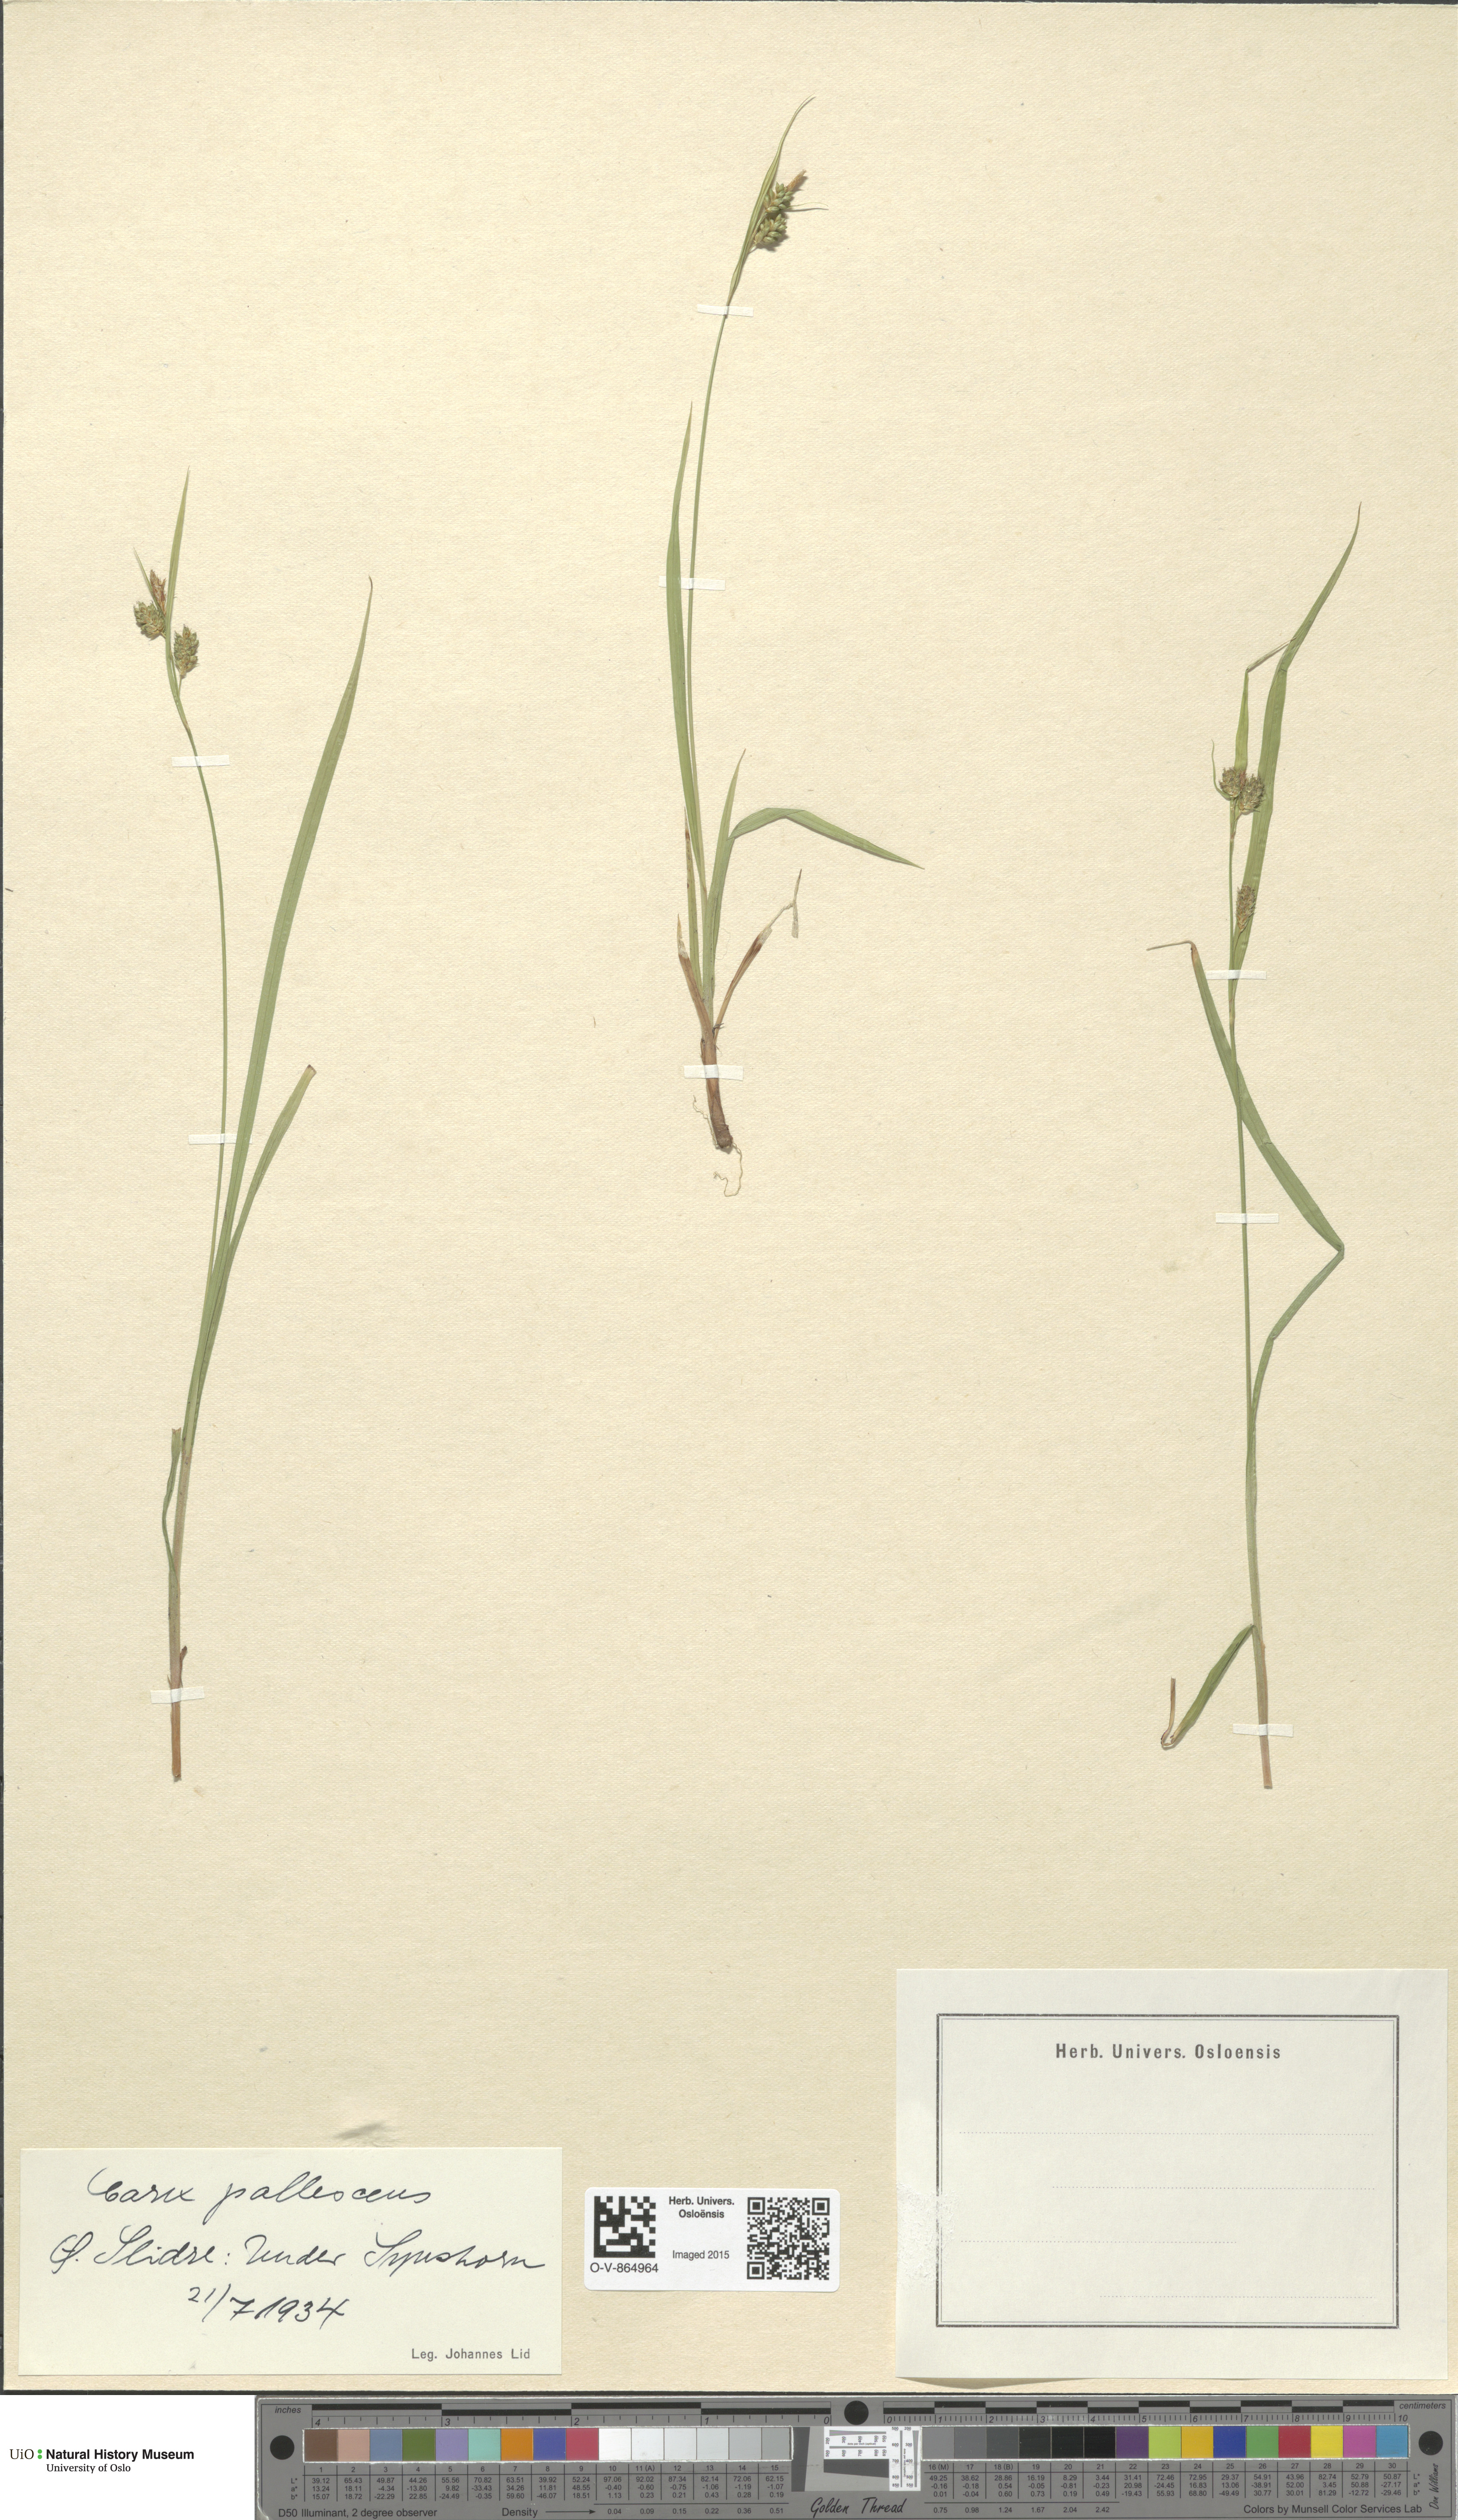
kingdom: Plantae
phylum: Tracheophyta
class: Liliopsida
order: Poales
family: Cyperaceae
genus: Carex
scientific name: Carex pallescens
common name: Pale sedge
